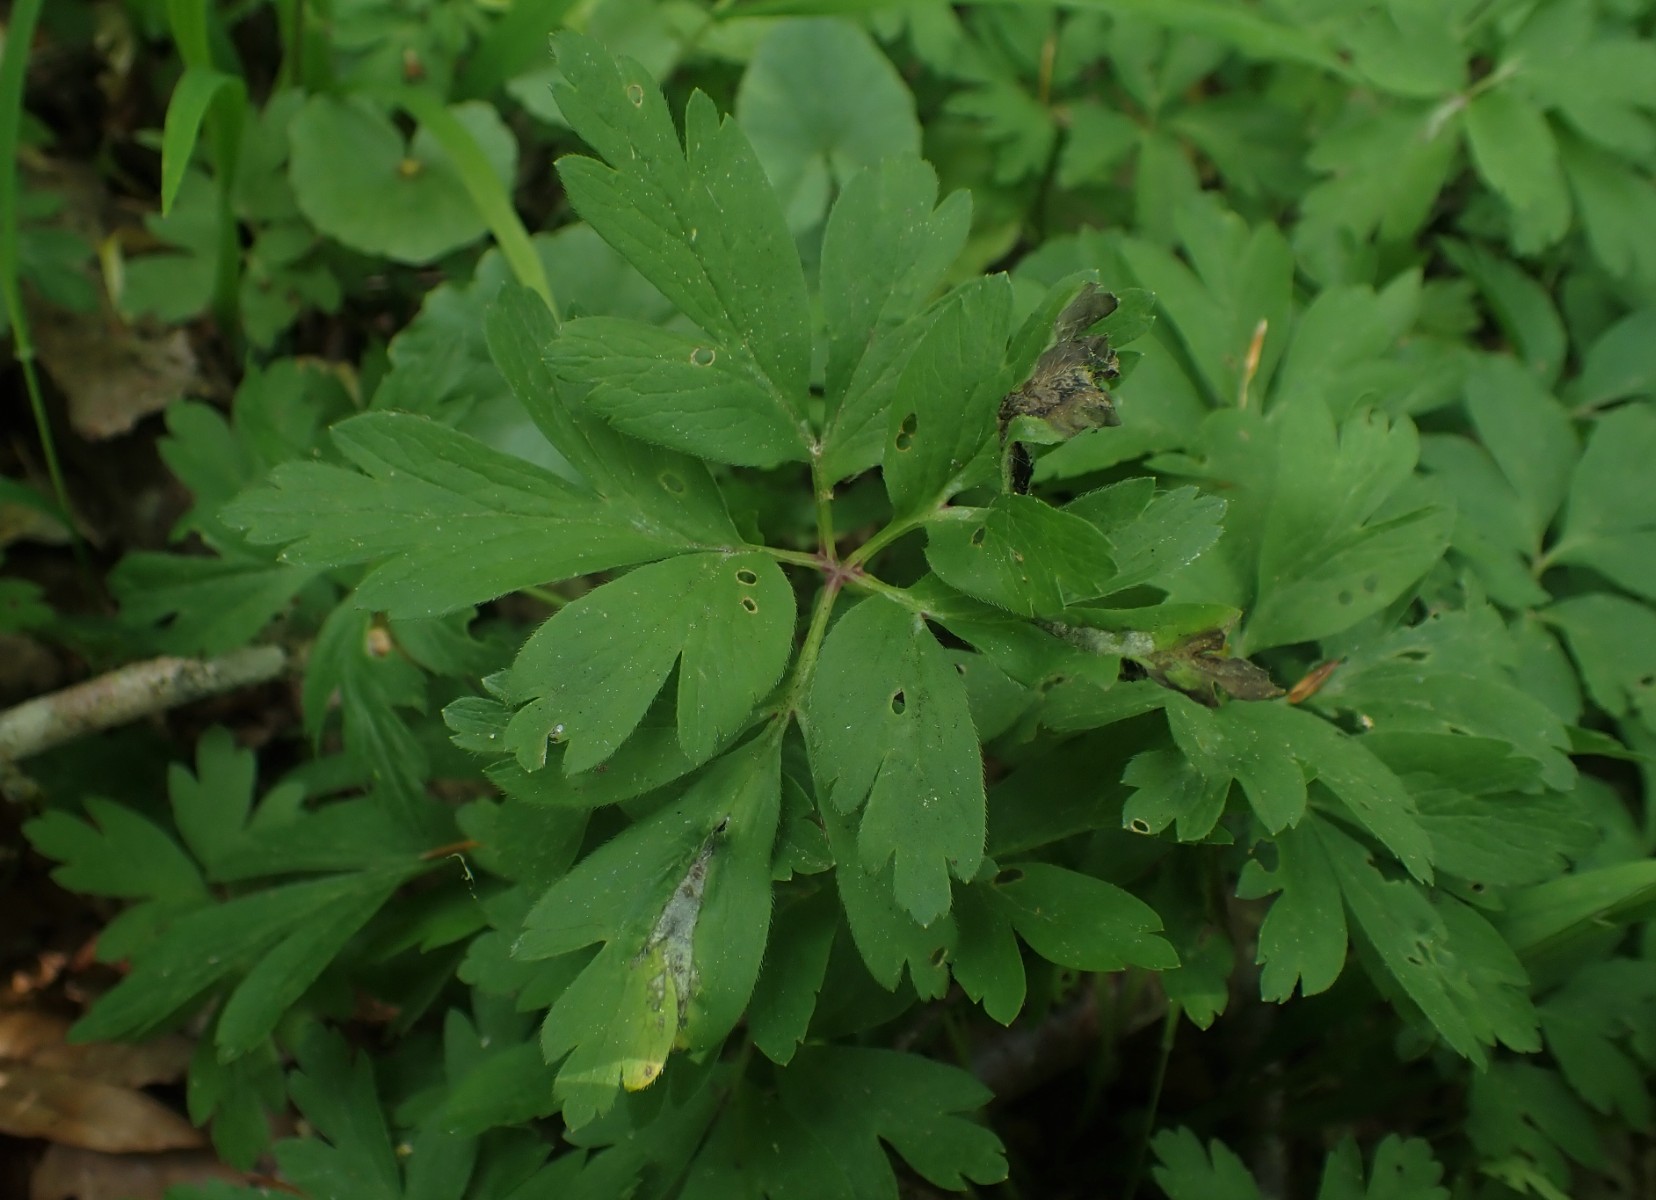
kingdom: Fungi
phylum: Basidiomycota
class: Ustilaginomycetes
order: Urocystidales
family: Urocystidaceae
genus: Urocystis
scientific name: Urocystis anemones
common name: anemone-brand
